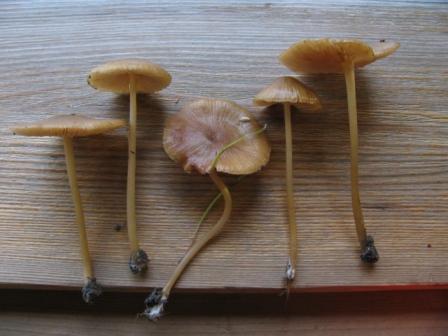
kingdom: Fungi
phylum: Basidiomycota
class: Agaricomycetes
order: Agaricales
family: Entolomataceae
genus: Entoloma
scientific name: Entoloma formosum
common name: brungul rødblad
